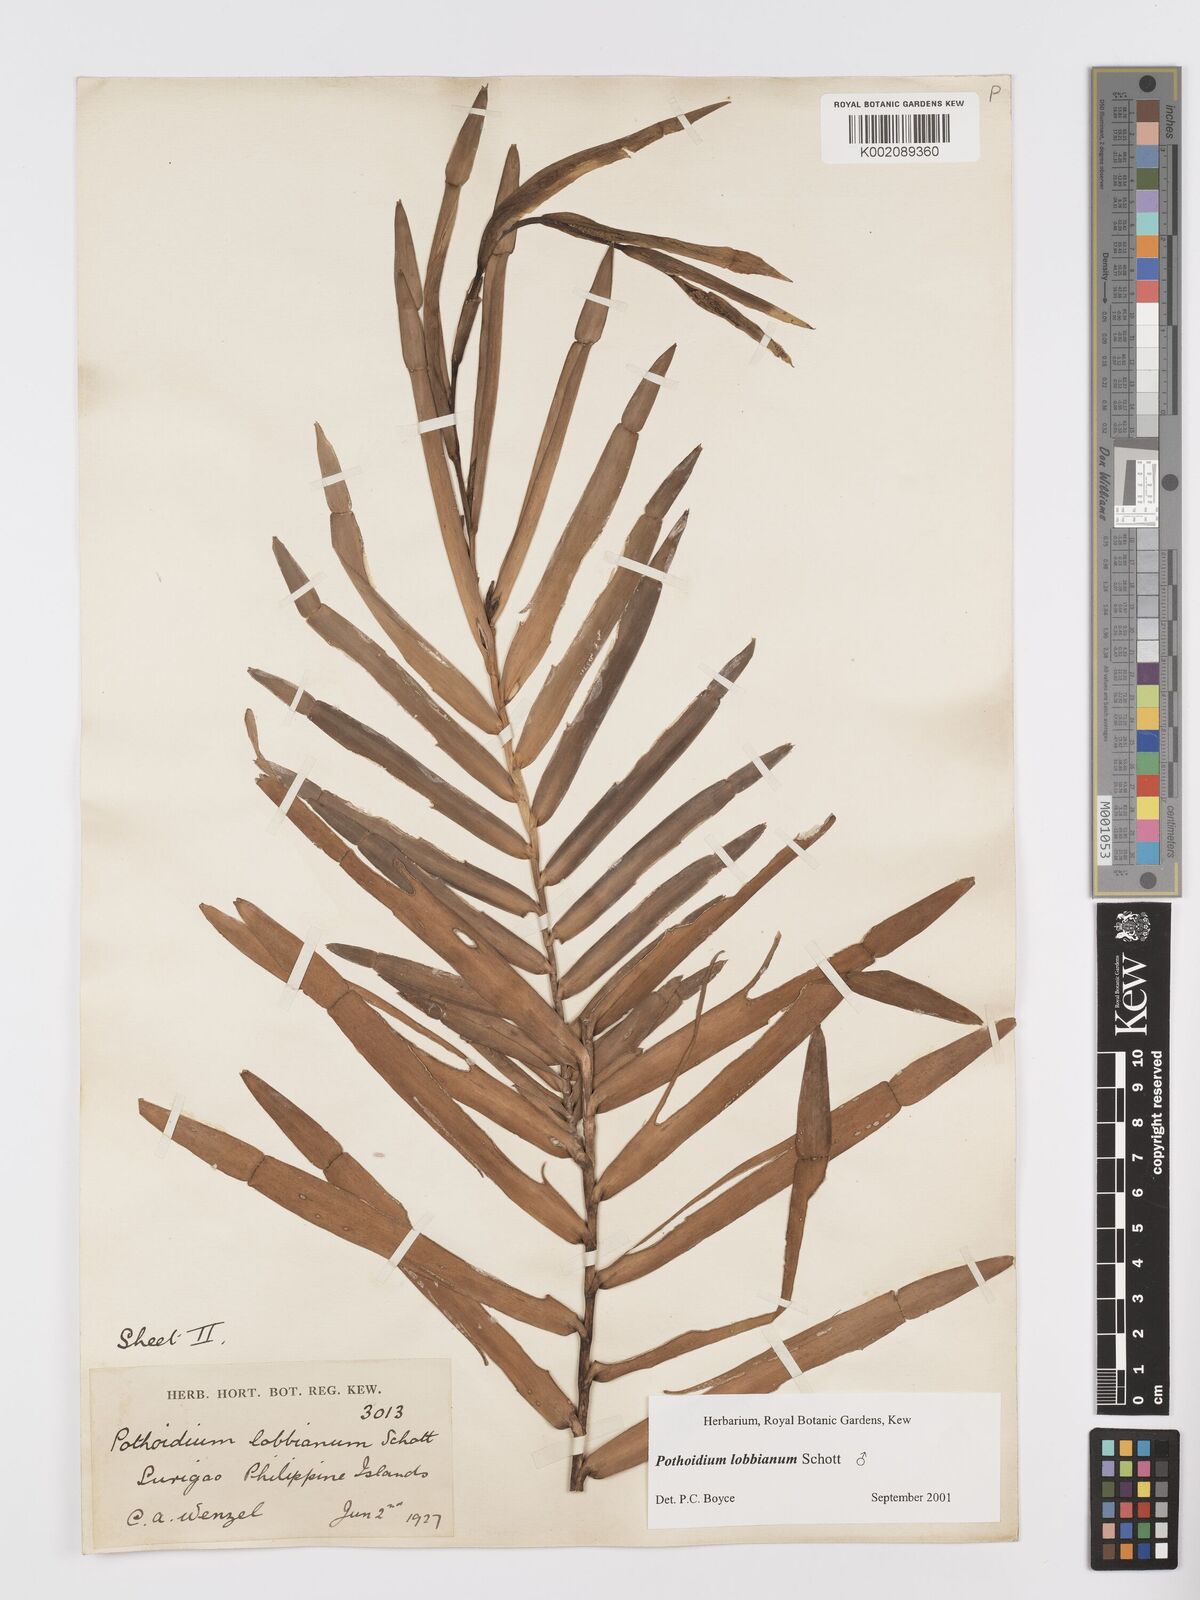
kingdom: Plantae
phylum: Tracheophyta
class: Liliopsida
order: Alismatales
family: Araceae
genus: Pothoidium
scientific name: Pothoidium lobbianum
